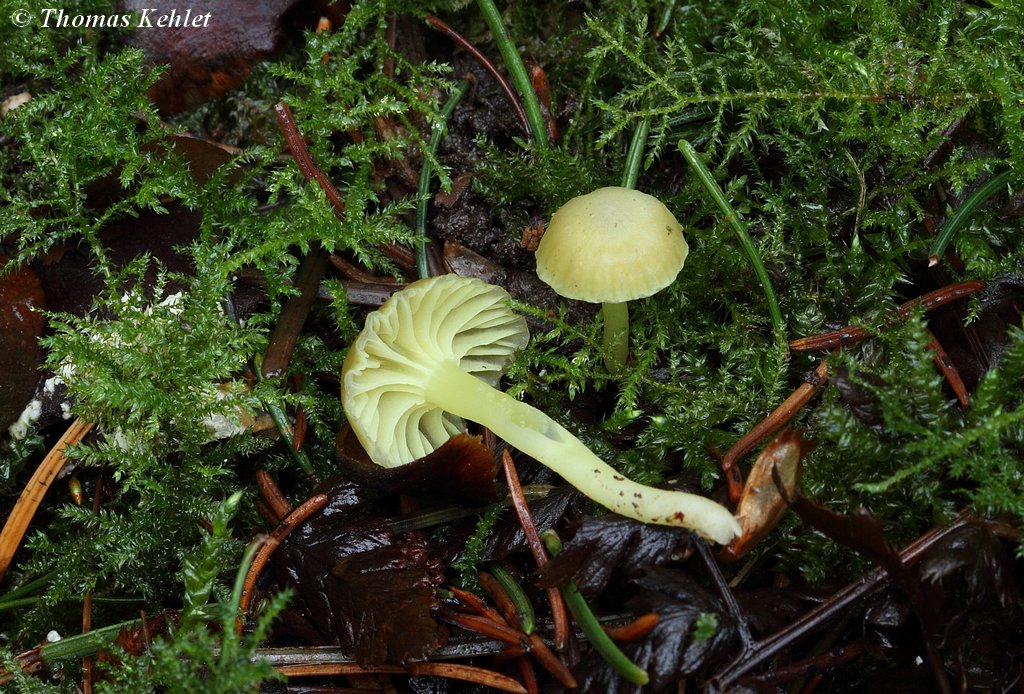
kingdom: Fungi
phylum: Basidiomycota
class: Agaricomycetes
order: Agaricales
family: Hygrophoraceae
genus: Chrysomphalina
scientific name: Chrysomphalina grossula
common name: stød-gyldenblad
